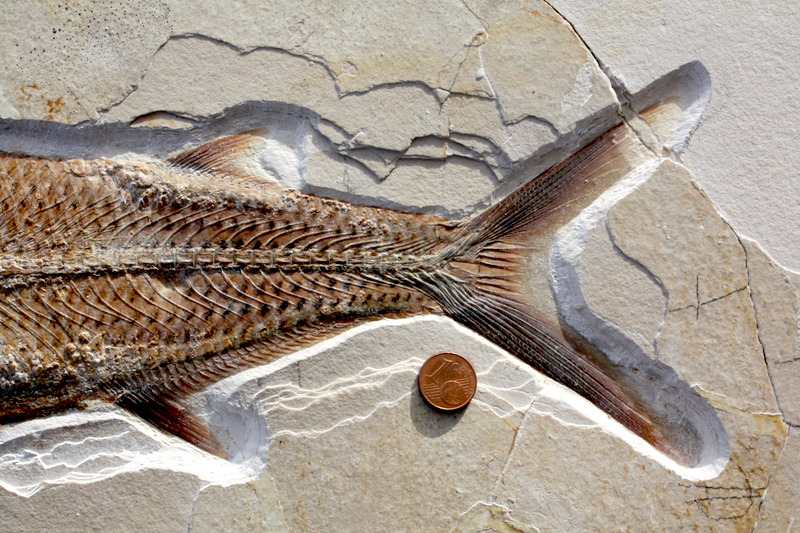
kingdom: Animalia
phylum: Chordata
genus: Thrissops
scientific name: Thrissops formosus
